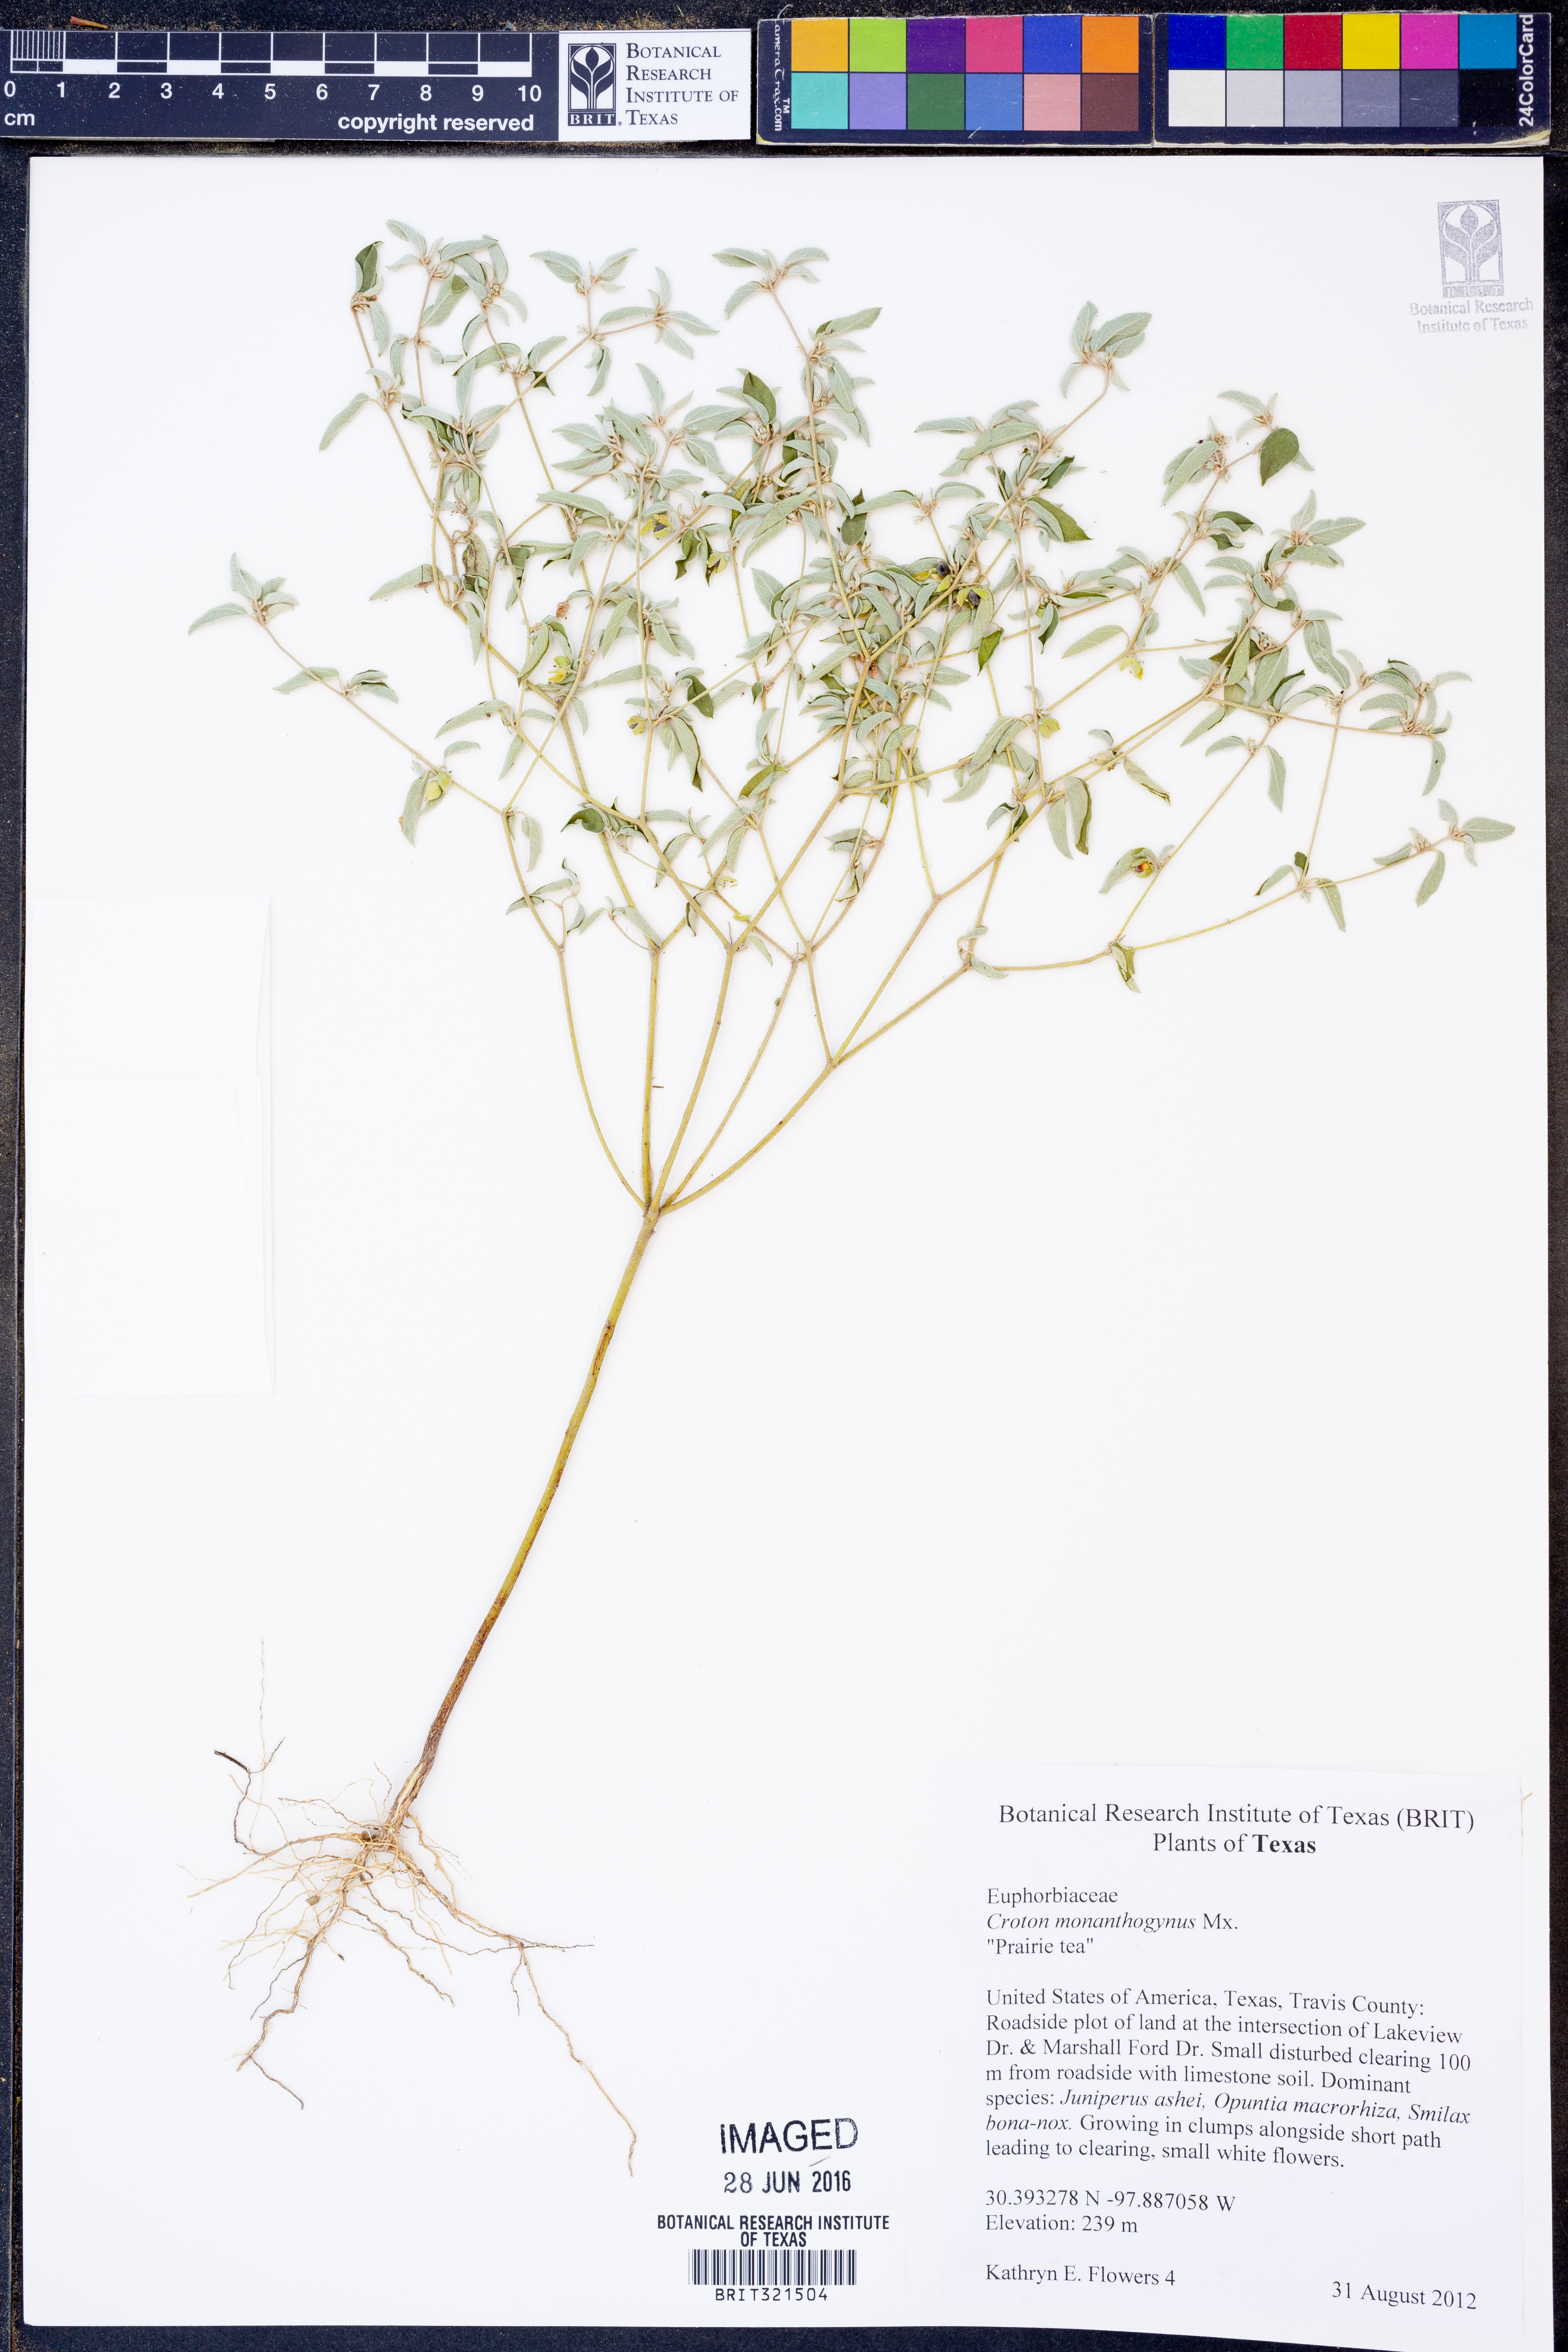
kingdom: Plantae
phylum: Tracheophyta
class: Magnoliopsida
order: Malpighiales
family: Euphorbiaceae
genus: Croton
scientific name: Croton monanthogynus
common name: One-seed croton
